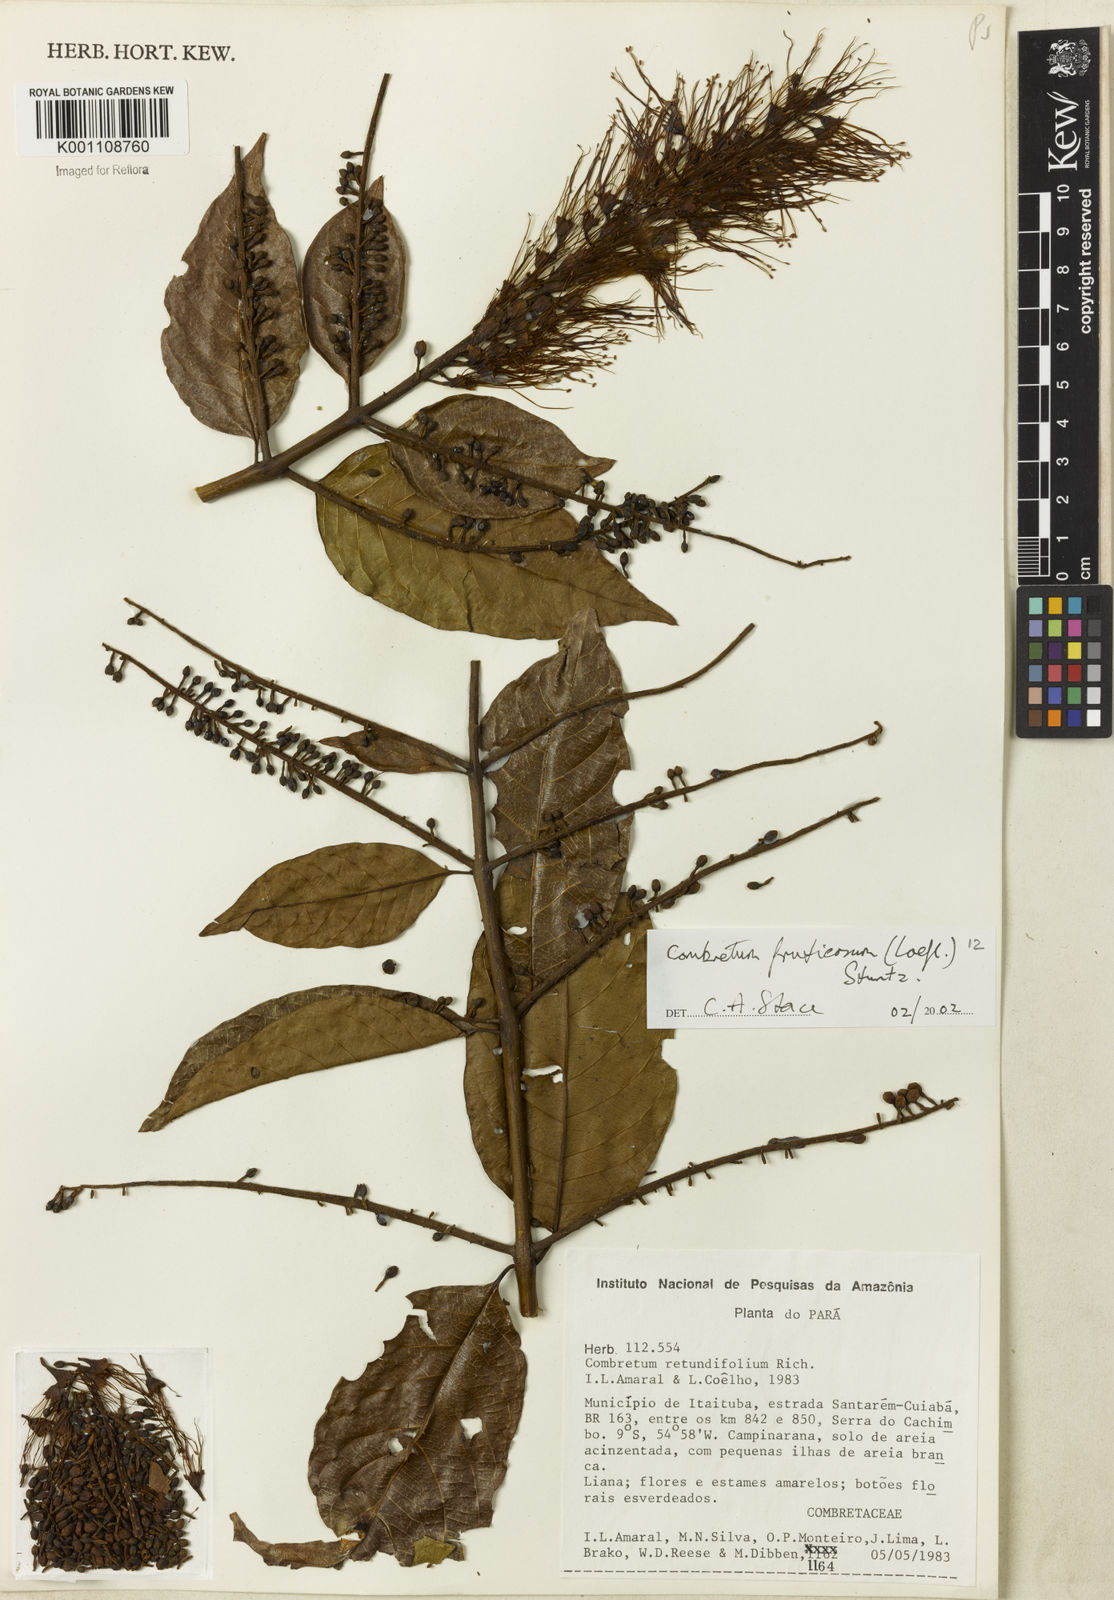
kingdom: Plantae
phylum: Tracheophyta
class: Magnoliopsida
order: Myrtales
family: Combretaceae
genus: Combretum
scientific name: Combretum fruticosum
